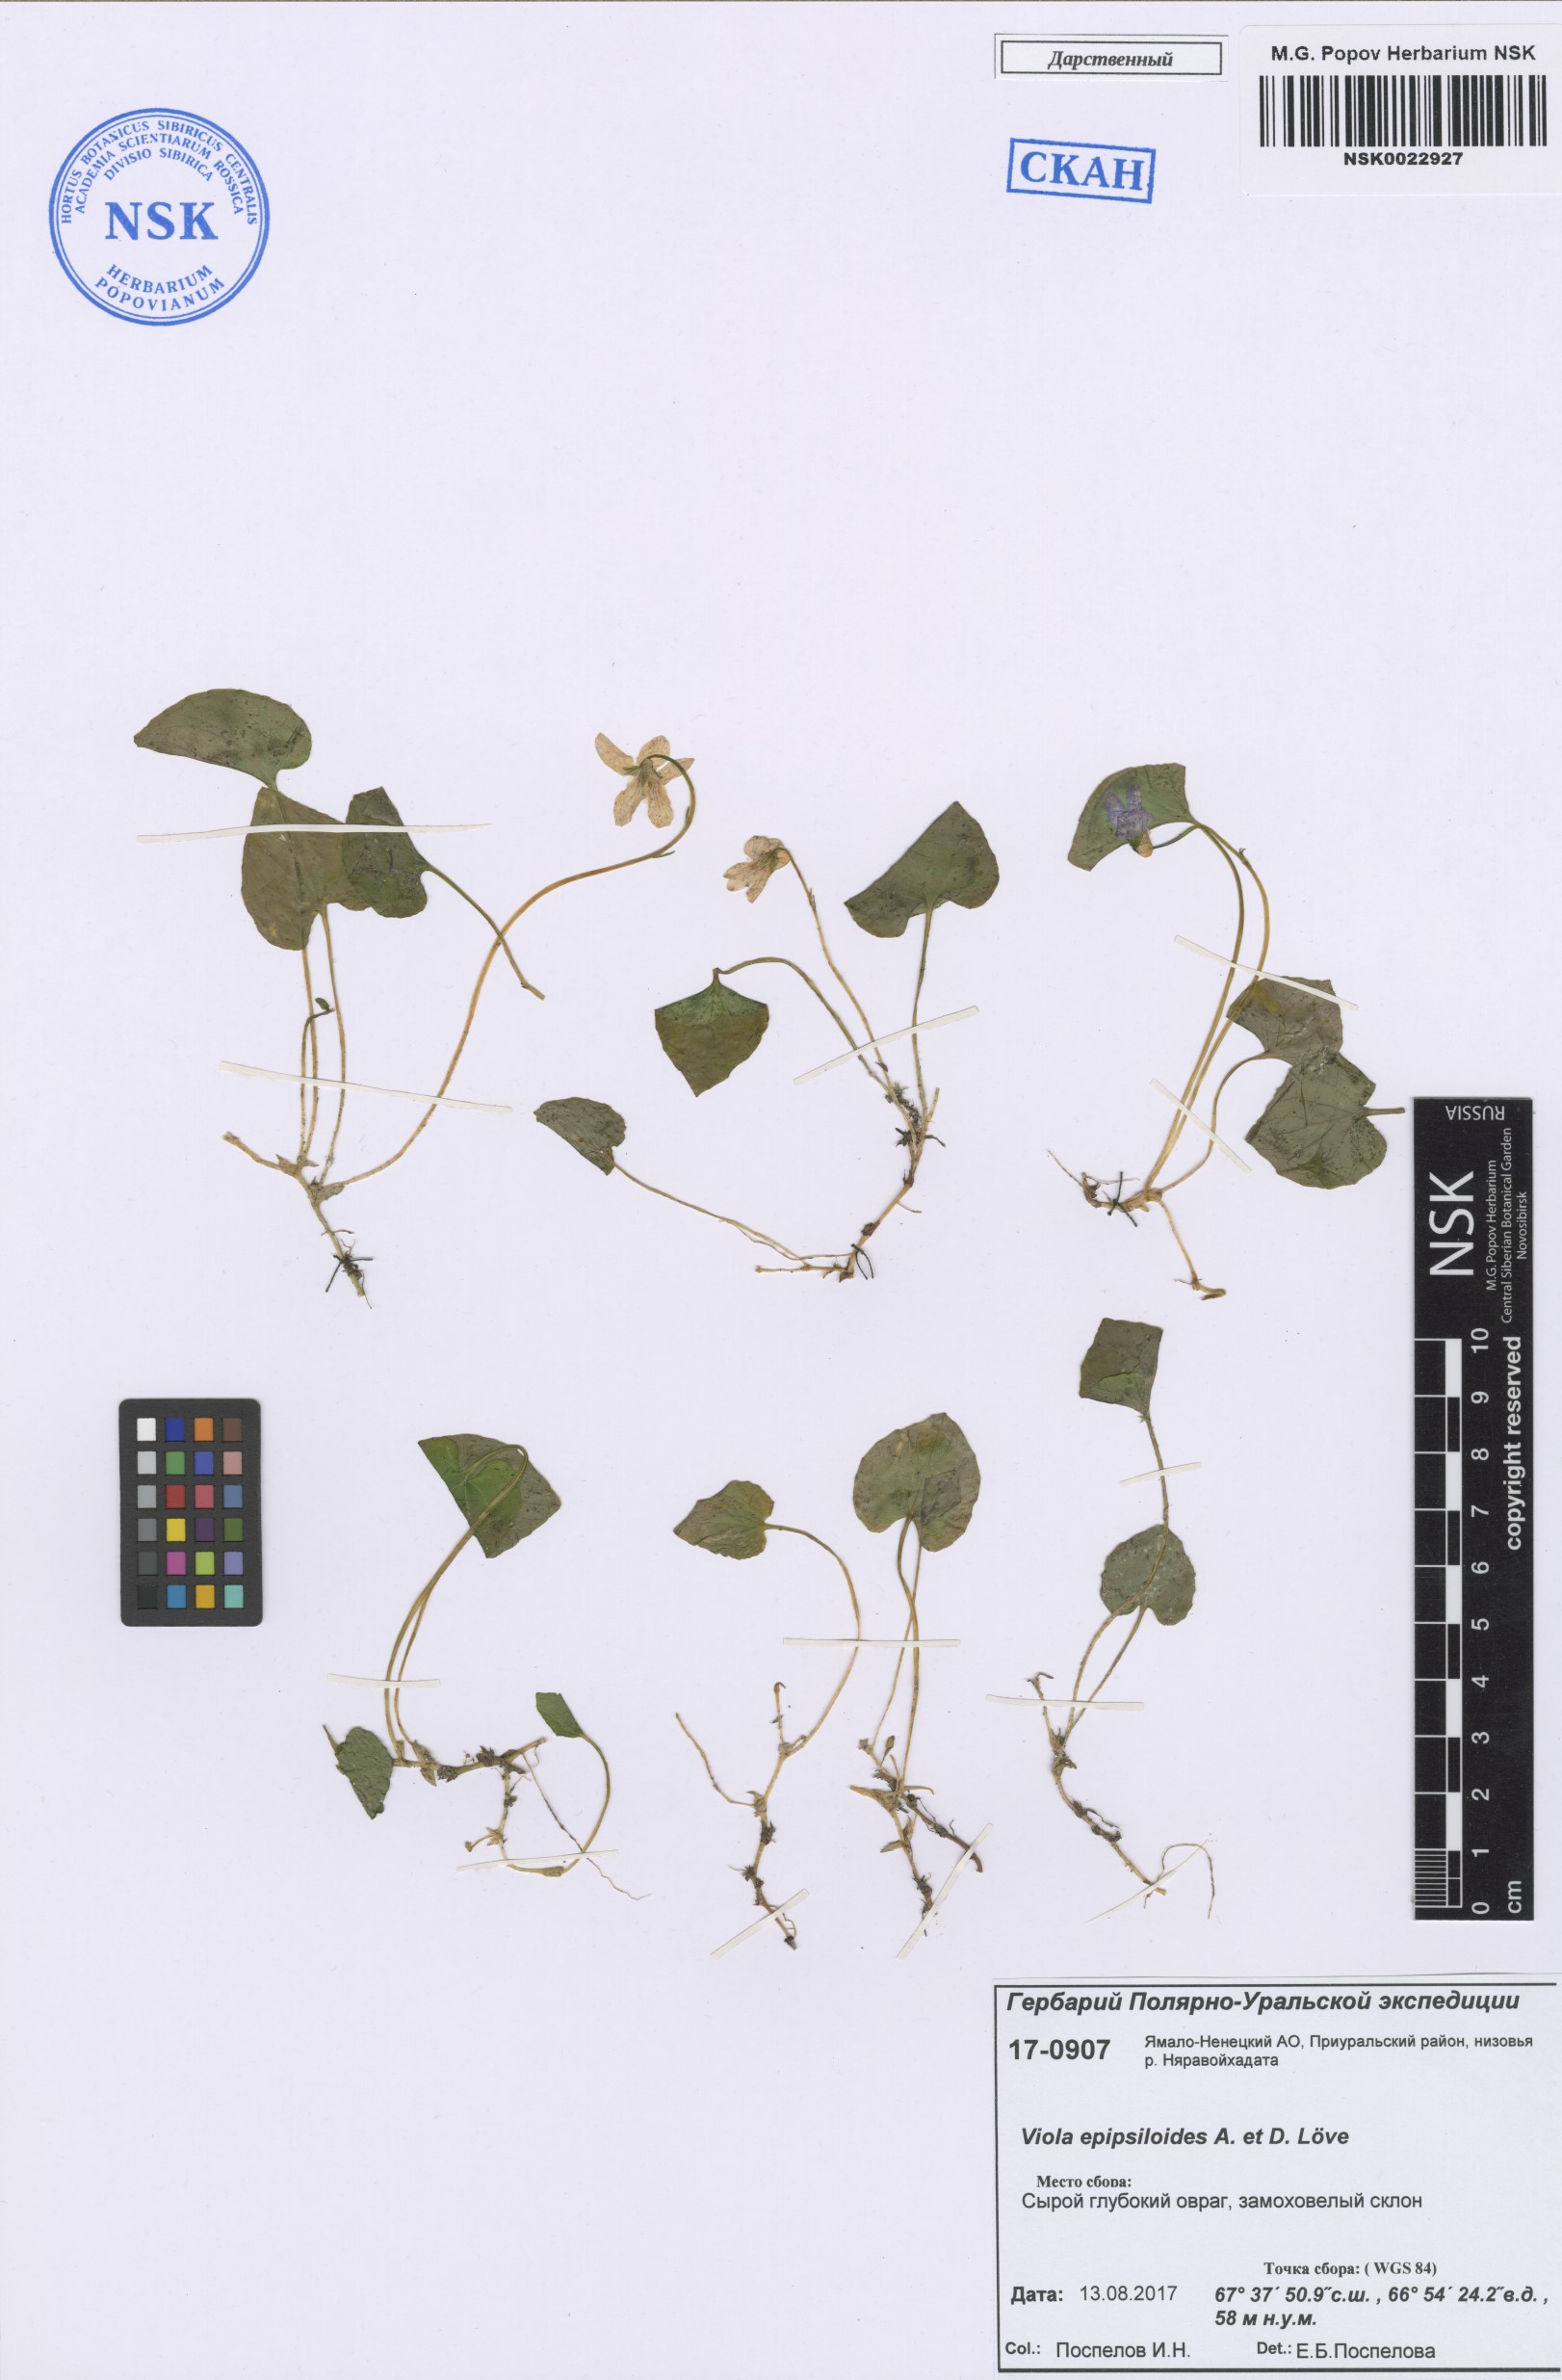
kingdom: Plantae
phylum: Tracheophyta
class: Magnoliopsida
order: Malpighiales
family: Violaceae
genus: Viola
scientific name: Viola epipsila
